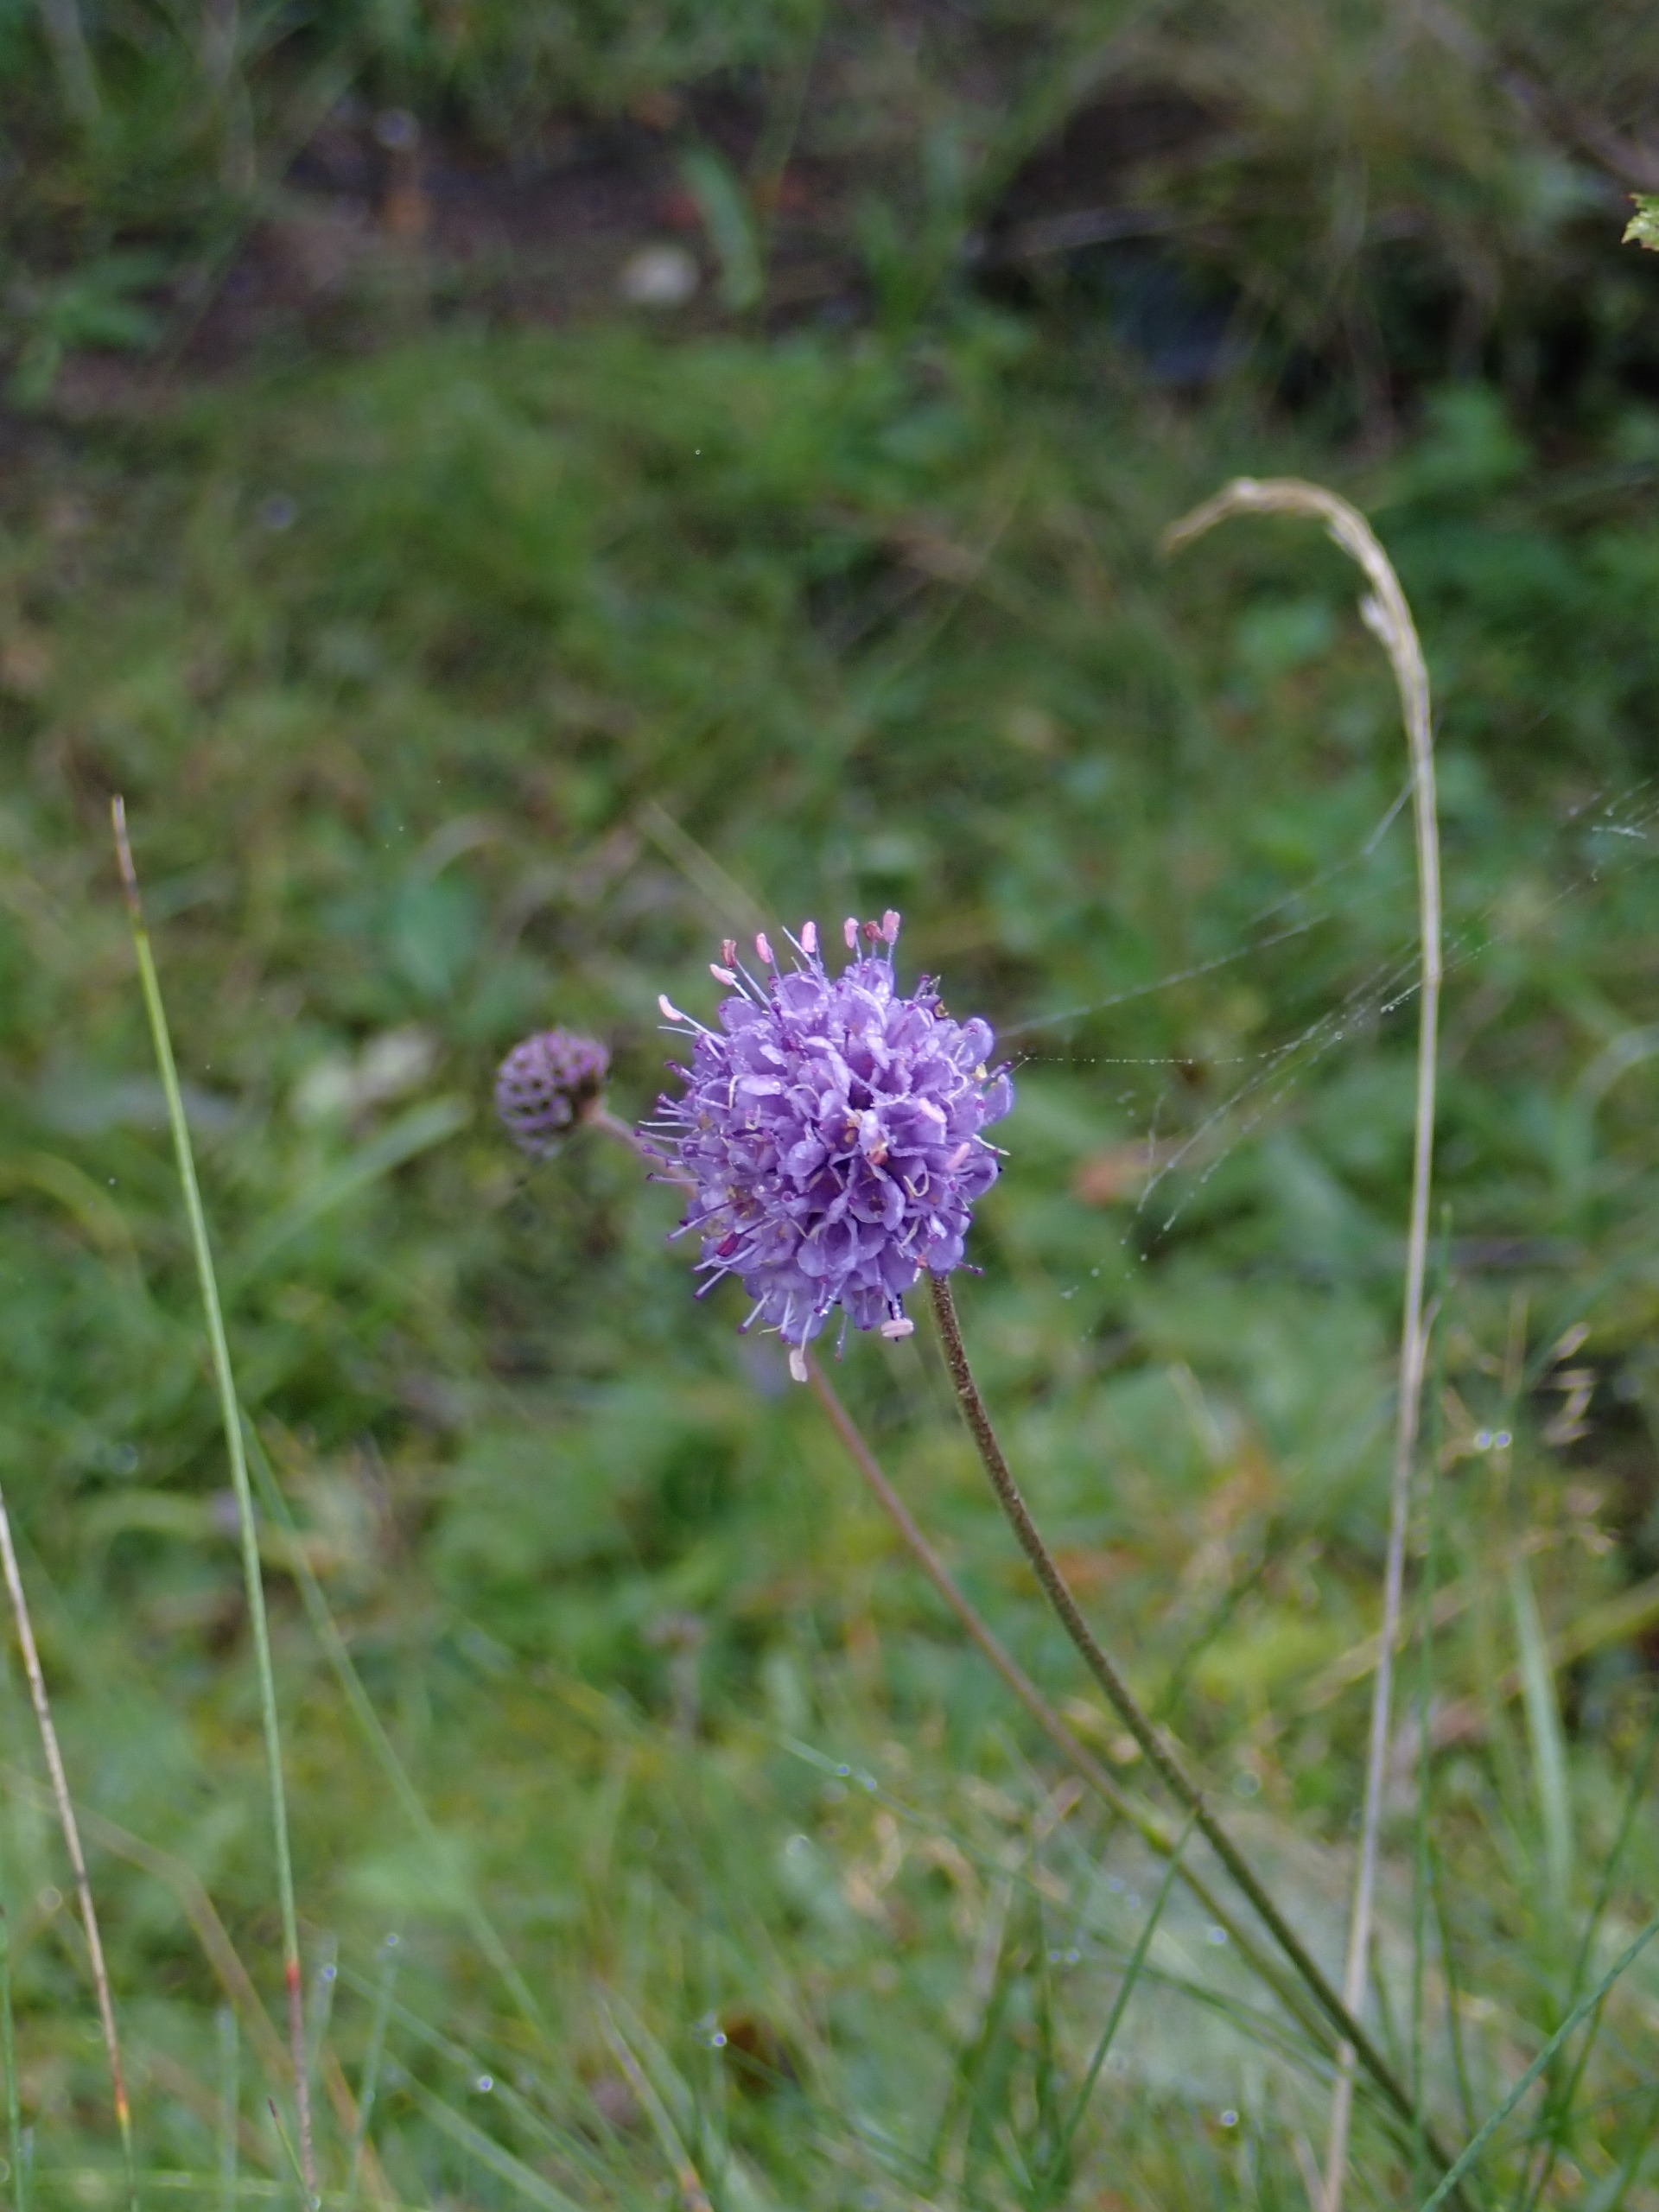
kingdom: Plantae
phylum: Tracheophyta
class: Magnoliopsida
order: Dipsacales
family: Caprifoliaceae
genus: Succisa
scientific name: Succisa pratensis
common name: Djævelsbid
